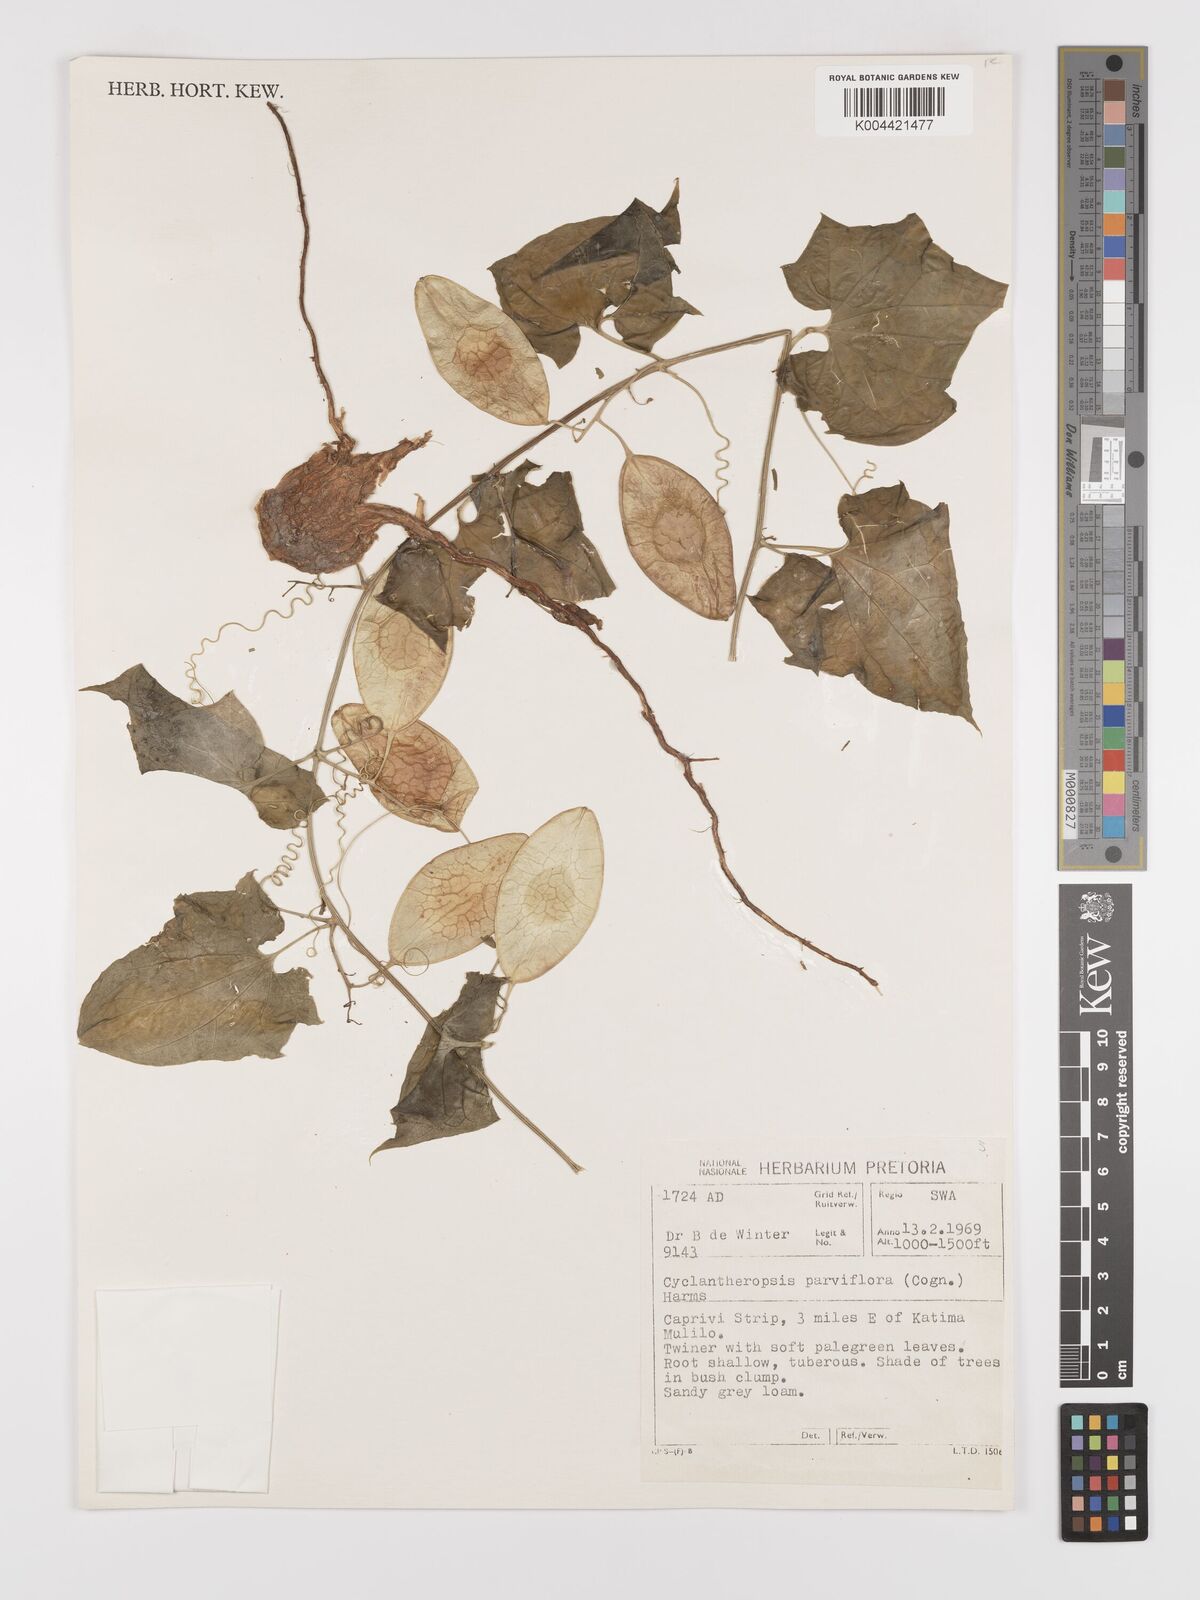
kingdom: Plantae
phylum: Tracheophyta
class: Magnoliopsida
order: Cucurbitales
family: Cucurbitaceae
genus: Cyclantheropsis
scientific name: Cyclantheropsis parviflora
